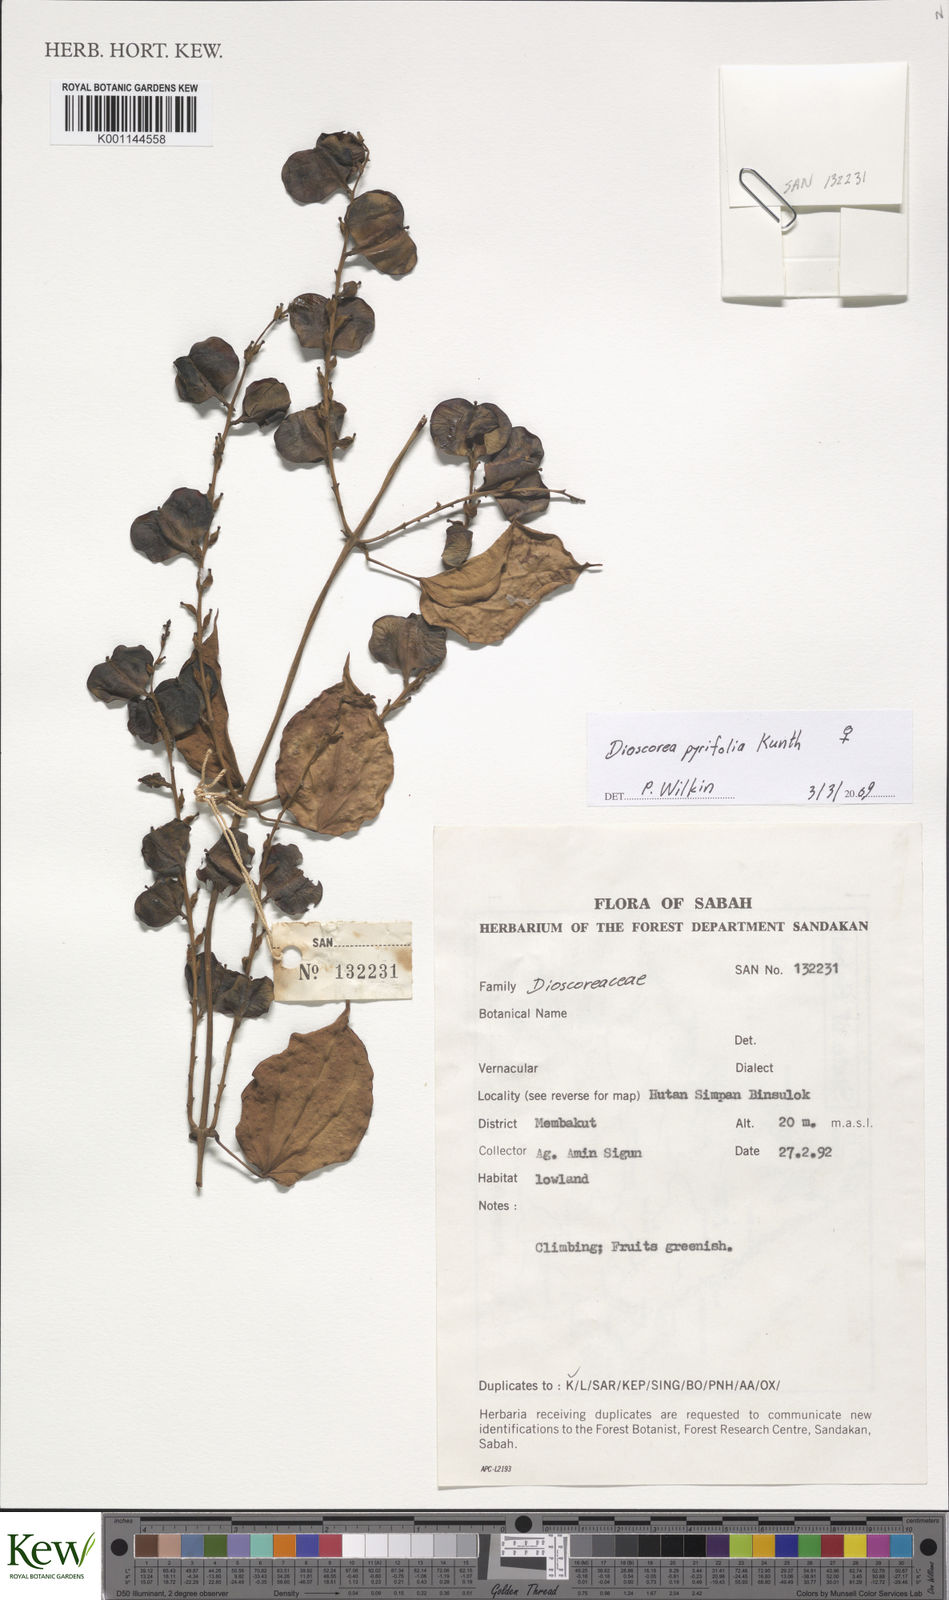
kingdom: Plantae
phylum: Tracheophyta
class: Liliopsida
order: Dioscoreales
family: Dioscoreaceae
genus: Dioscorea
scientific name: Dioscorea pyrifolia
